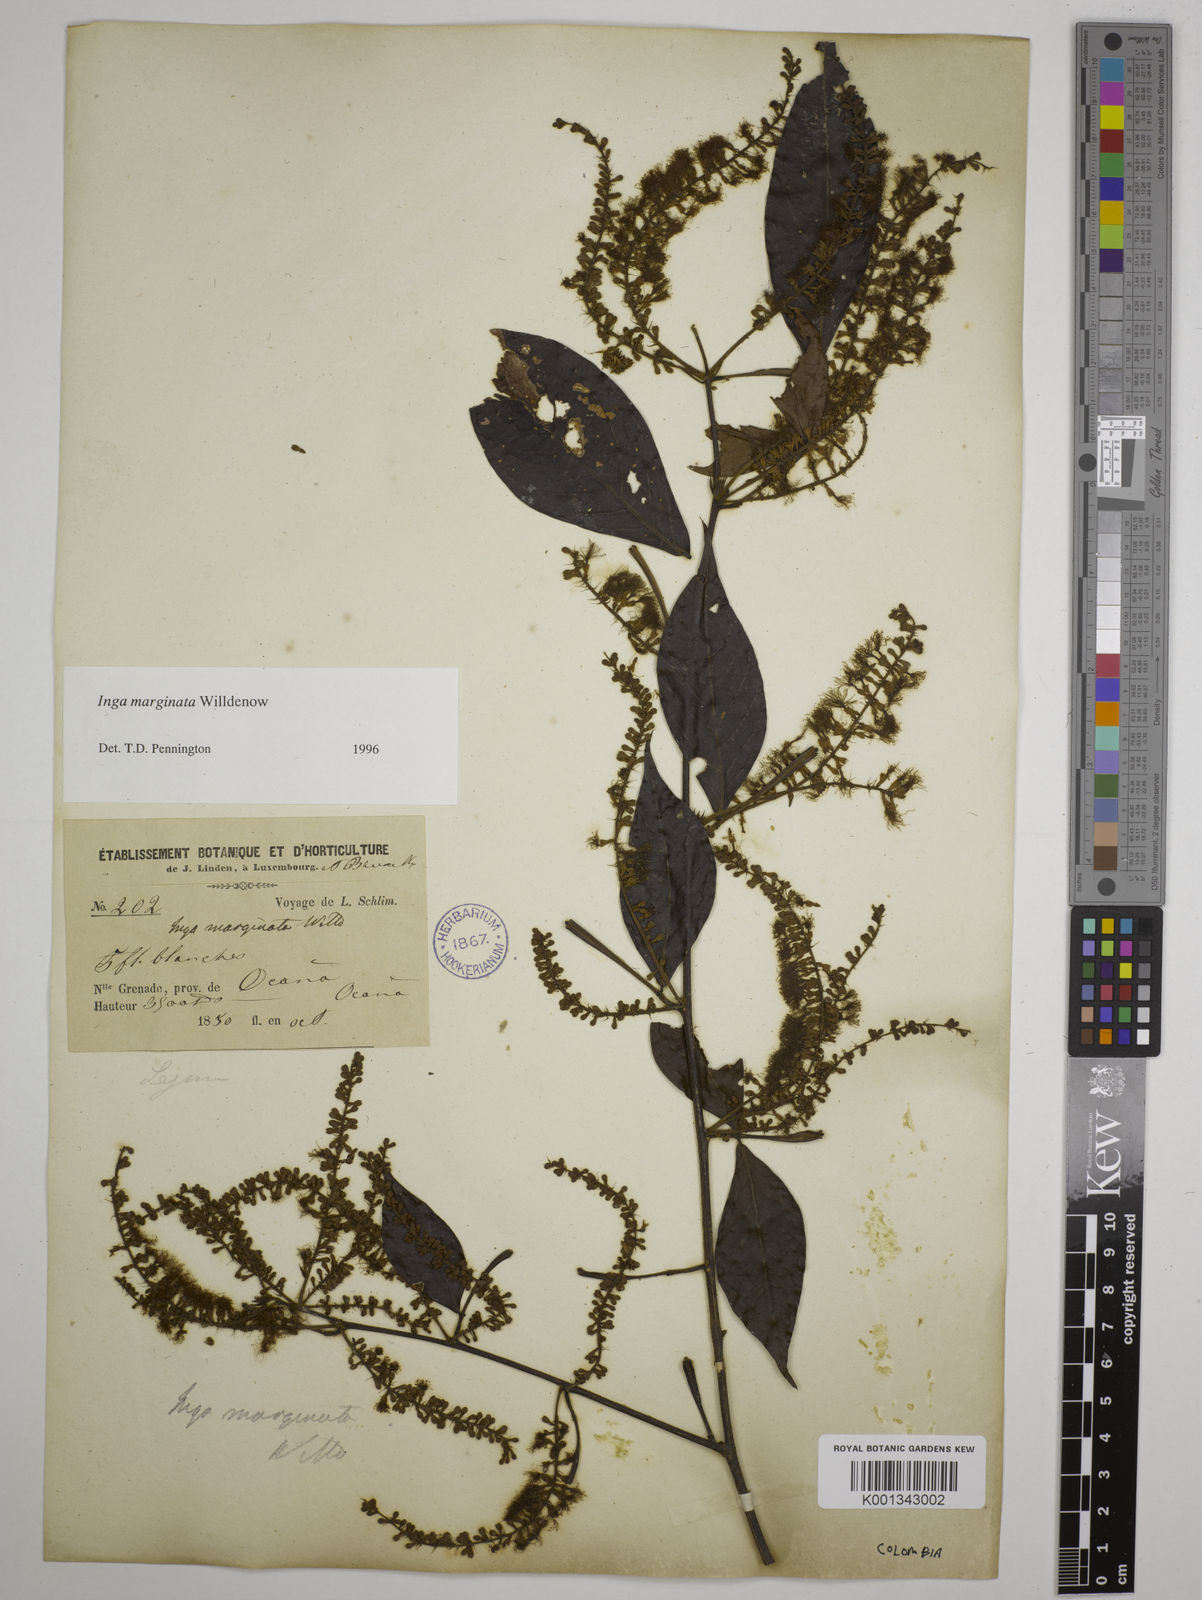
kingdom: Plantae
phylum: Tracheophyta
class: Magnoliopsida
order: Fabales
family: Fabaceae
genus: Inga
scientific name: Inga marginata
